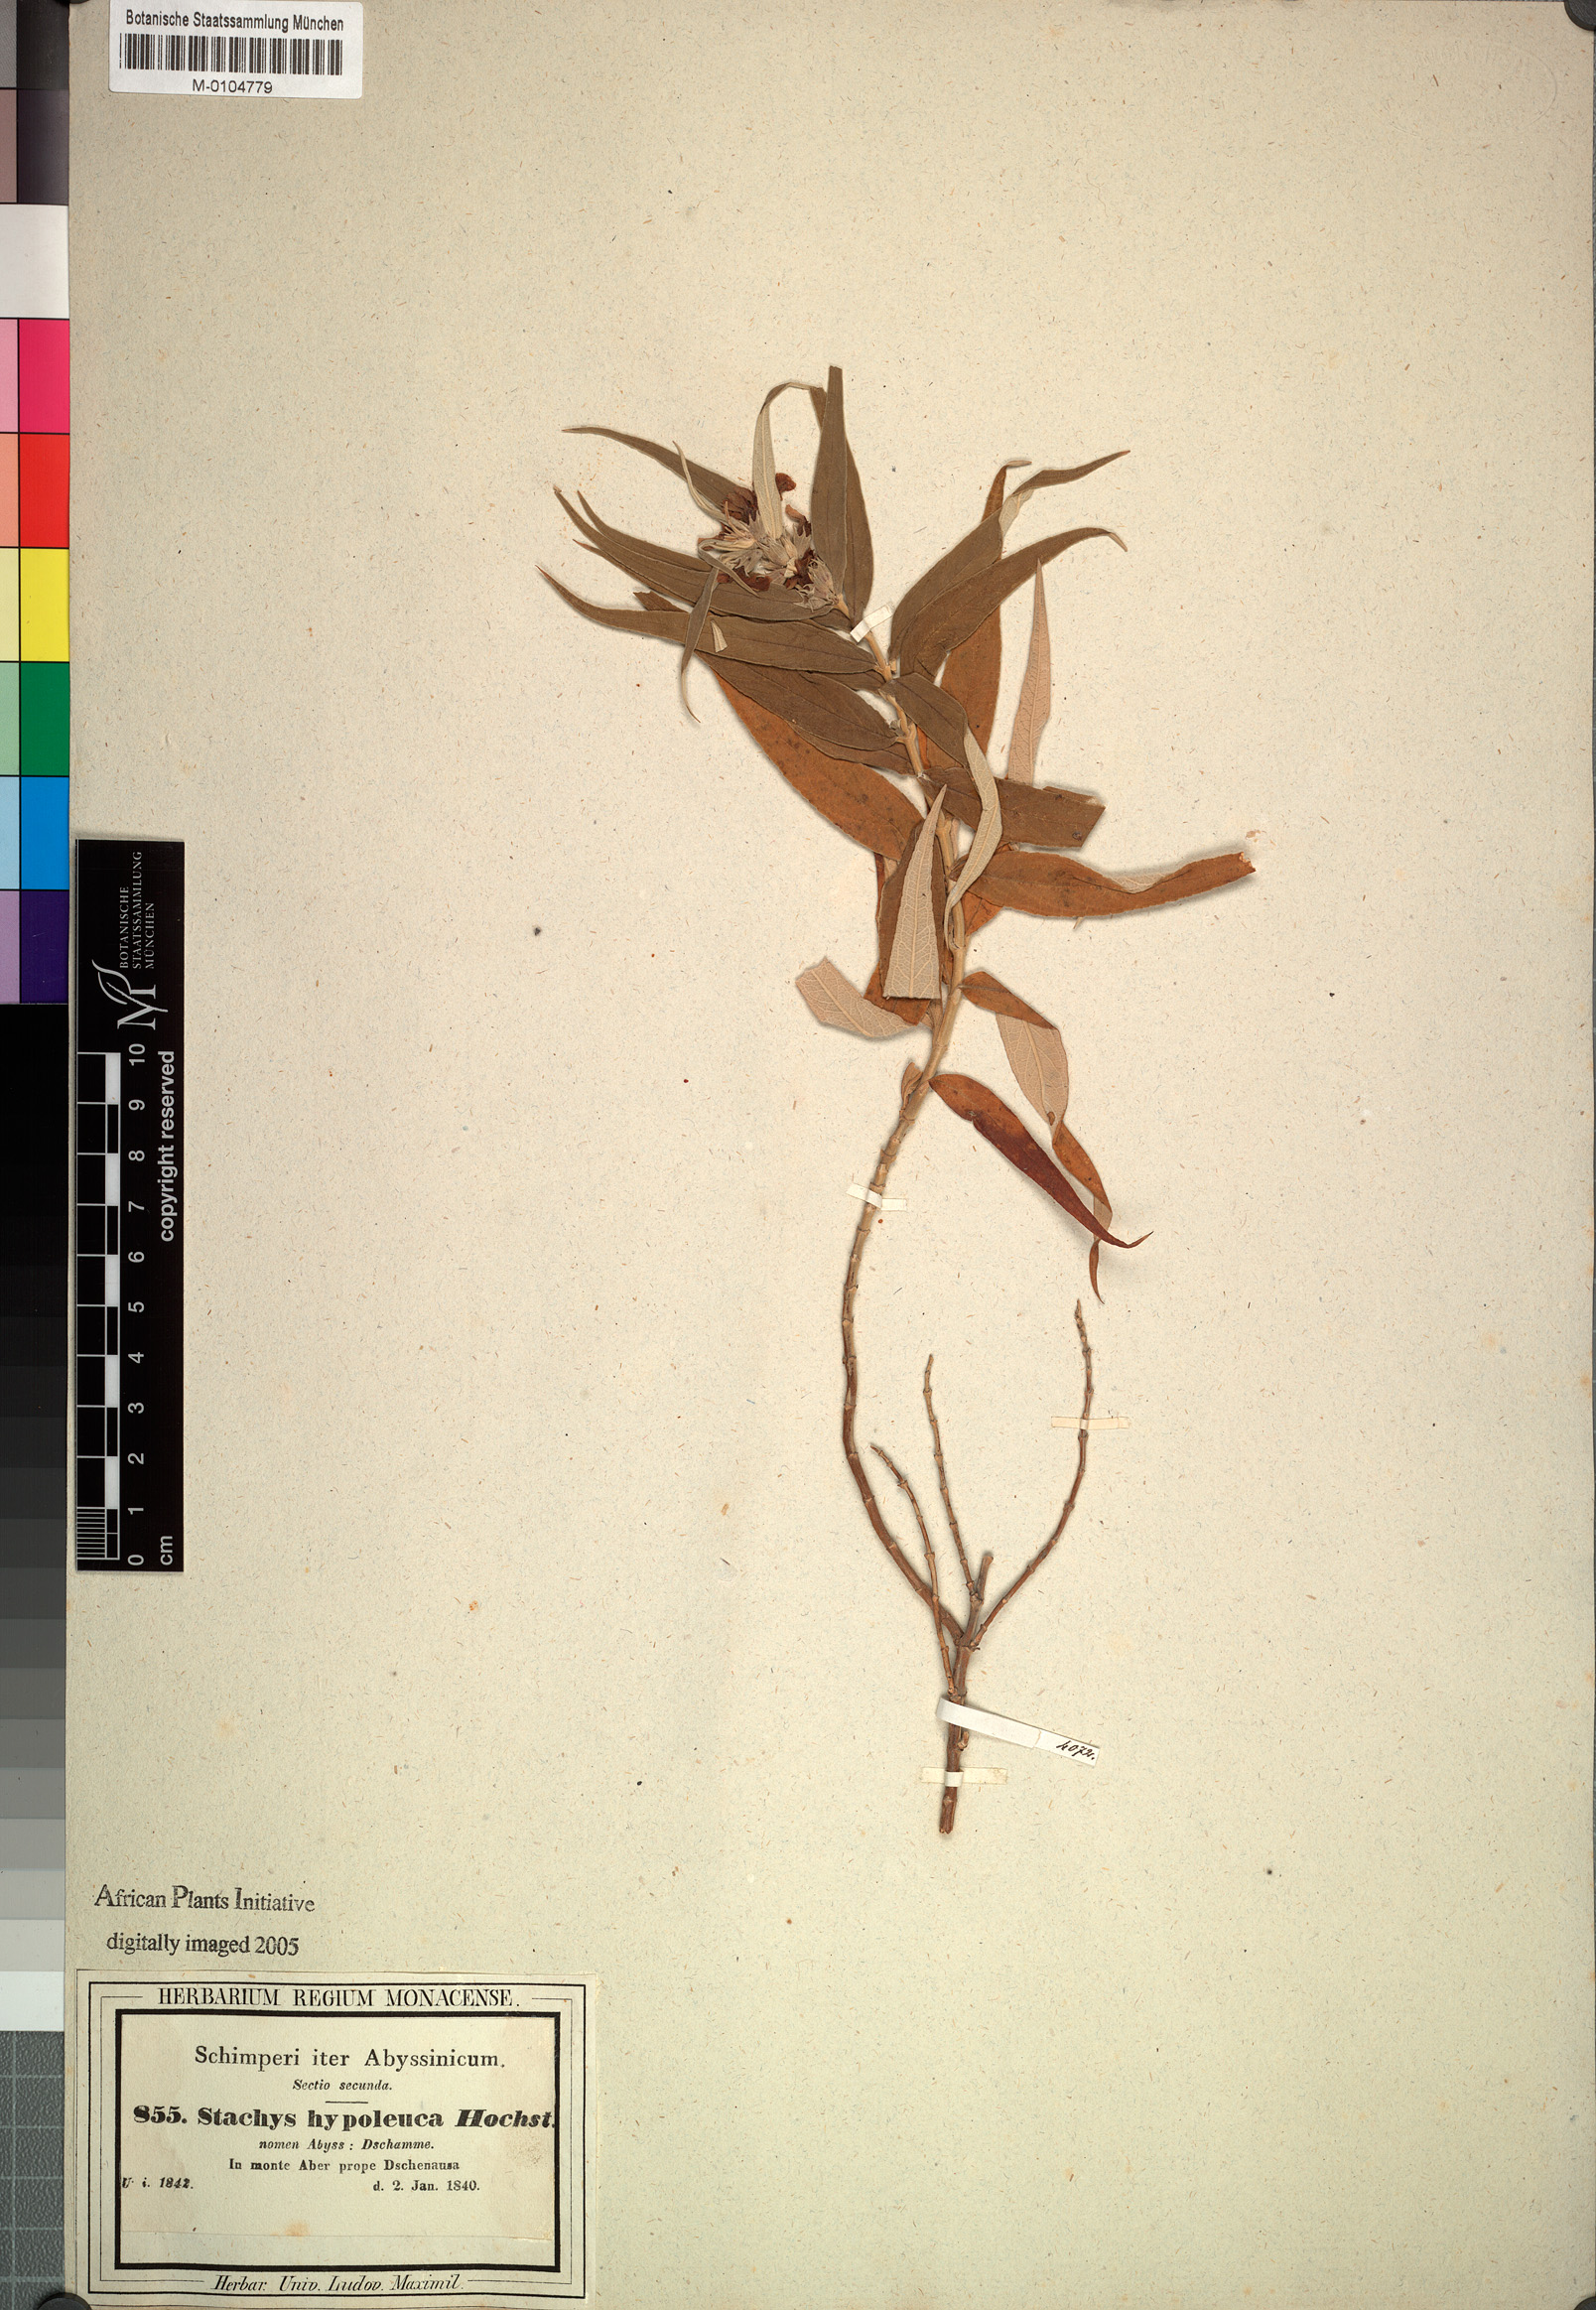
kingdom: Plantae
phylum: Tracheophyta
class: Magnoliopsida
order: Lamiales
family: Lamiaceae
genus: Stachys
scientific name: Stachys hypoleuca
